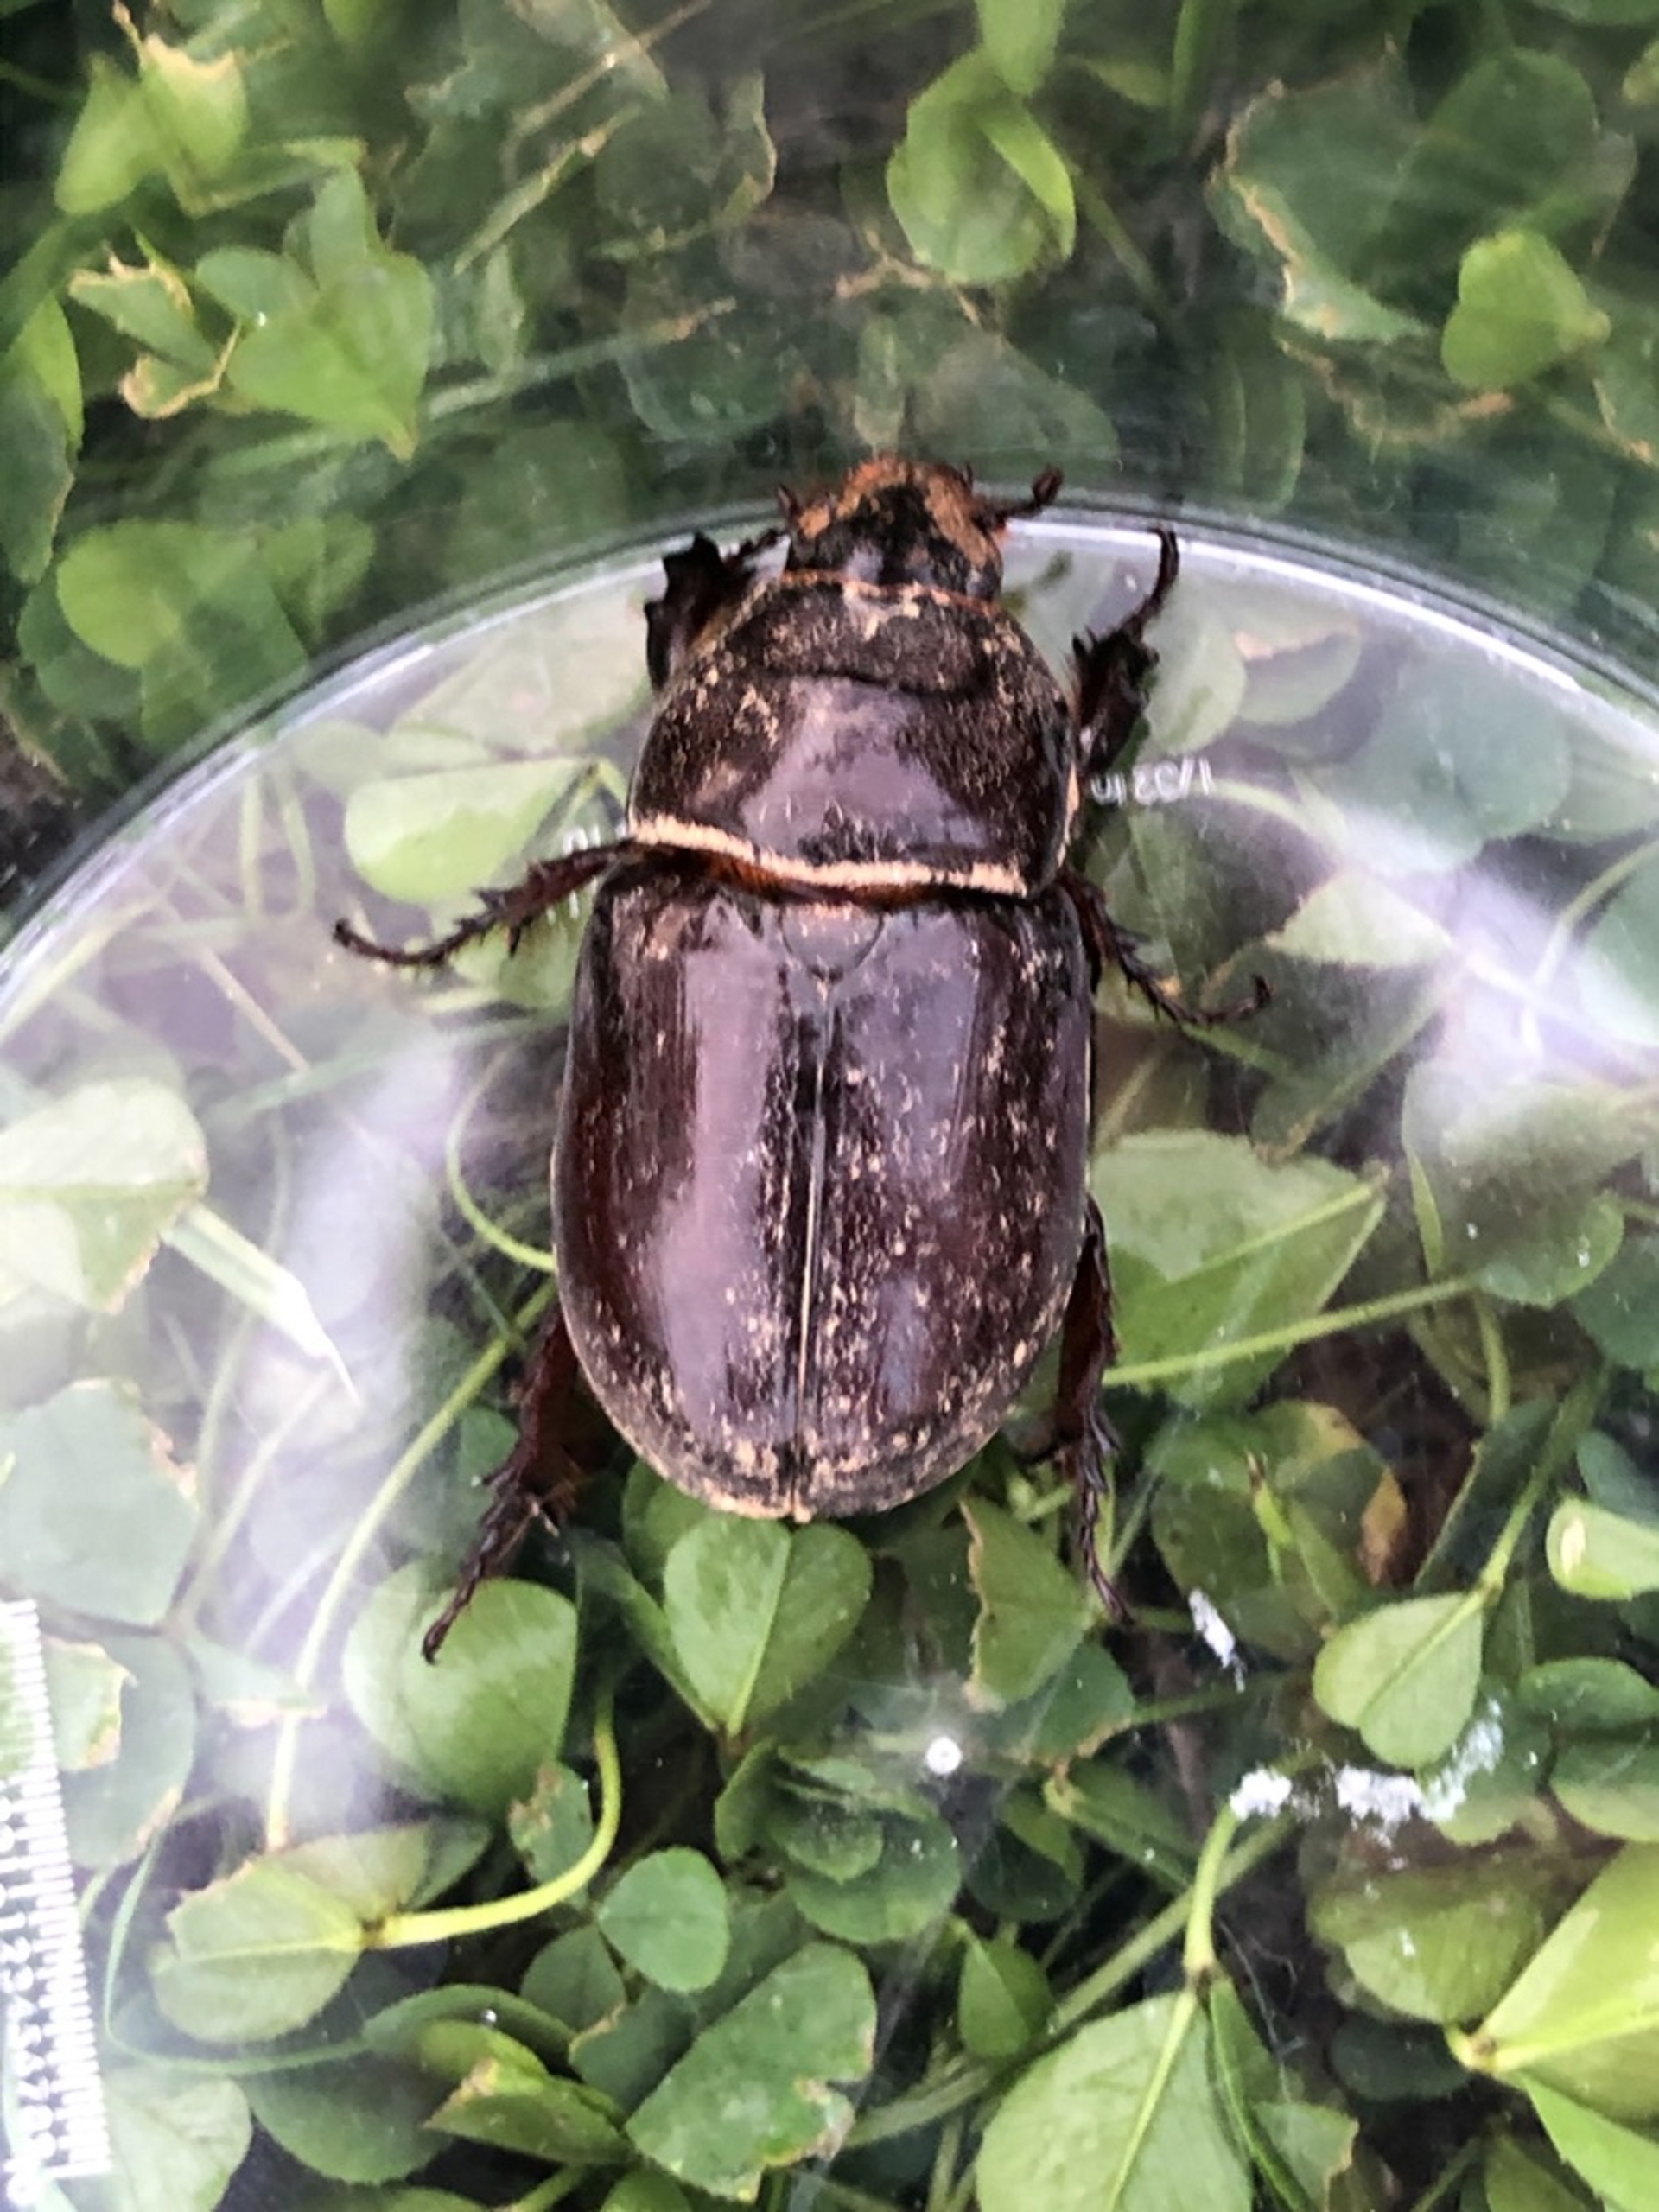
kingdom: Animalia
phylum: Arthropoda
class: Insecta
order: Coleoptera
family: Scarabaeidae
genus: Oryctes
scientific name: Oryctes nasicornis
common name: Næsehornsbille
